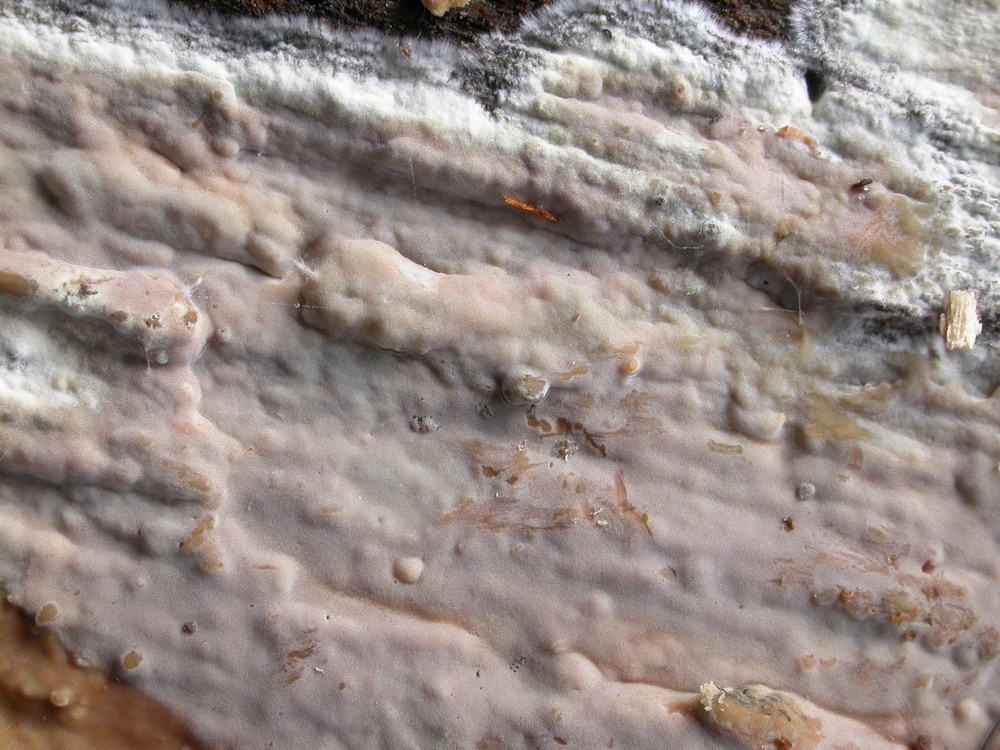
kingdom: Fungi
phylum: Basidiomycota
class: Agaricomycetes
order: Russulales
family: Peniophoraceae
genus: Scytinostroma
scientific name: Scytinostroma hemidichophyticum
